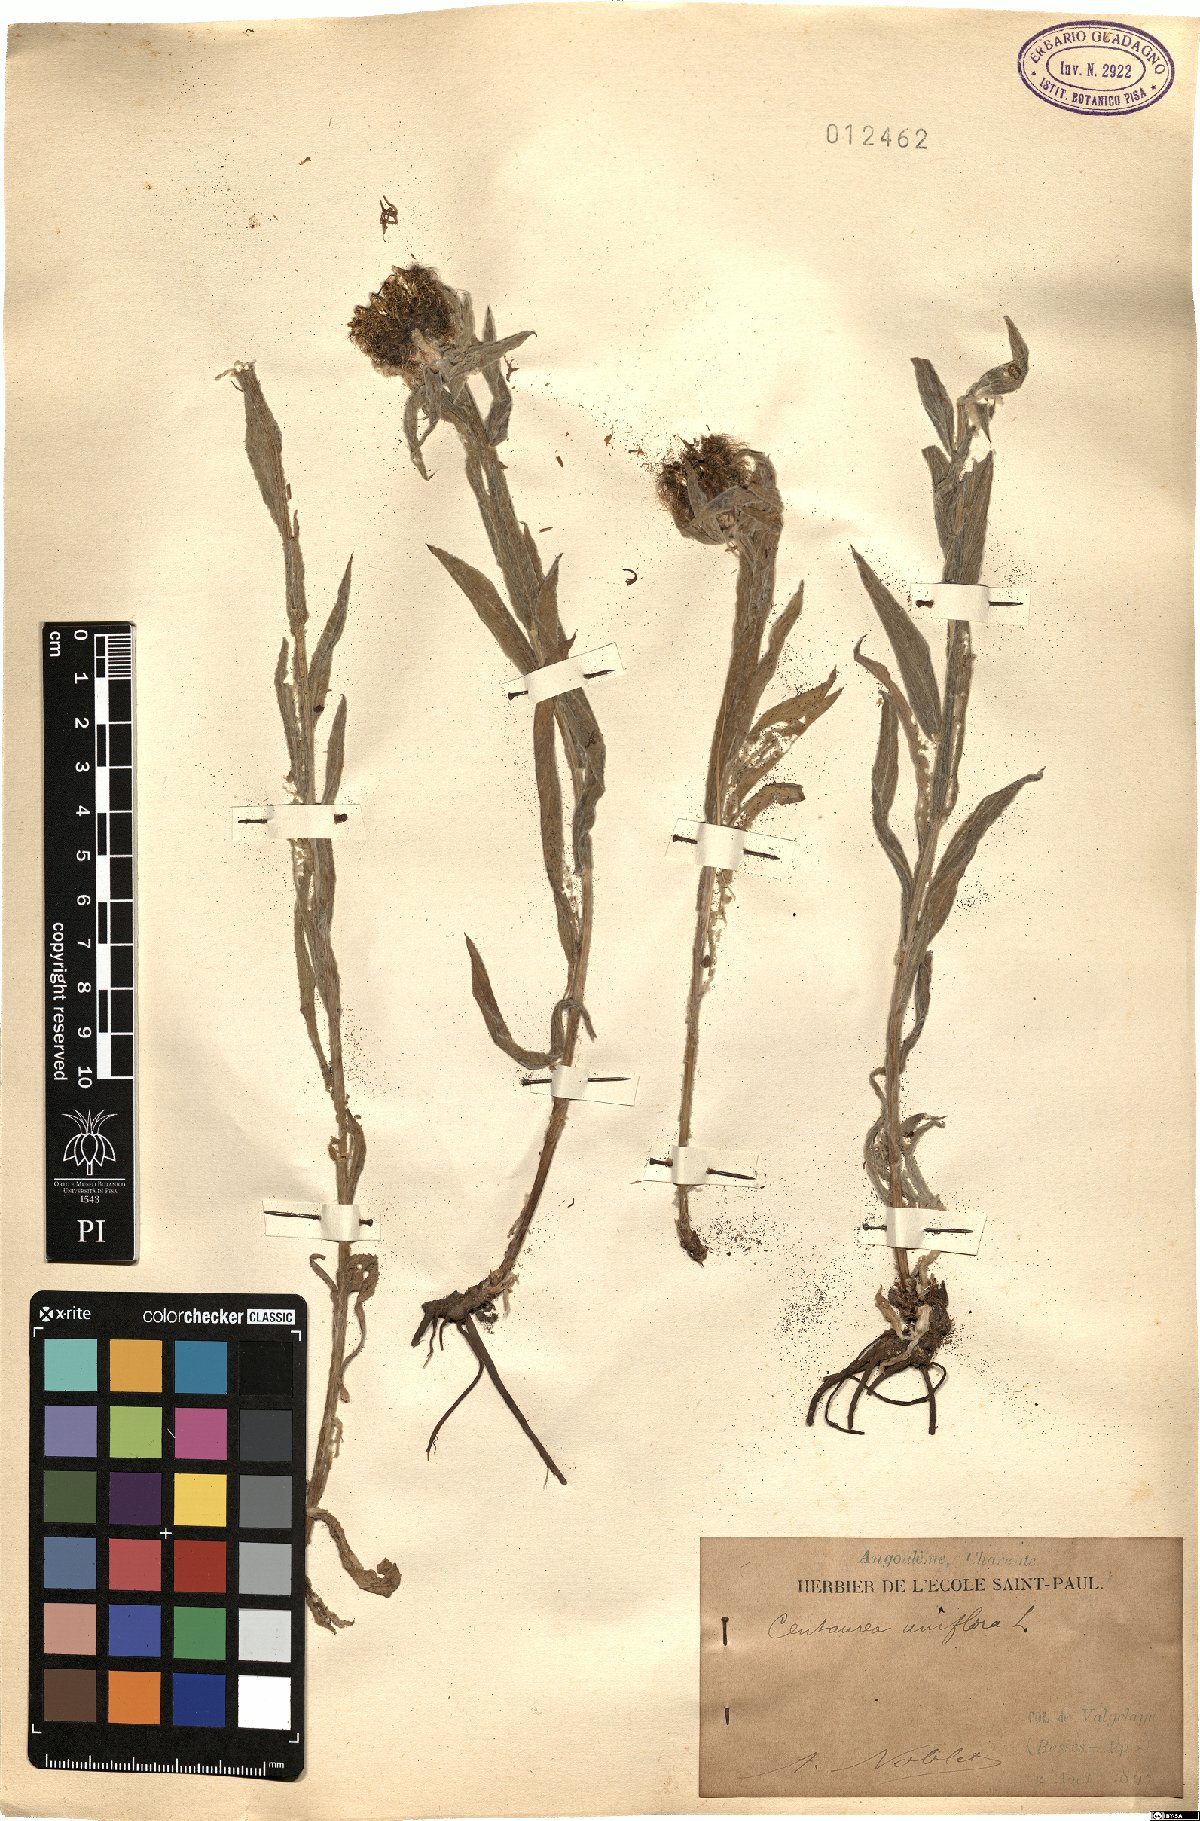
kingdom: Plantae
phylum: Tracheophyta
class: Magnoliopsida
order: Asterales
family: Asteraceae
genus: Centaurea
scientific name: Centaurea uniflora
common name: Singleflower knapweed
